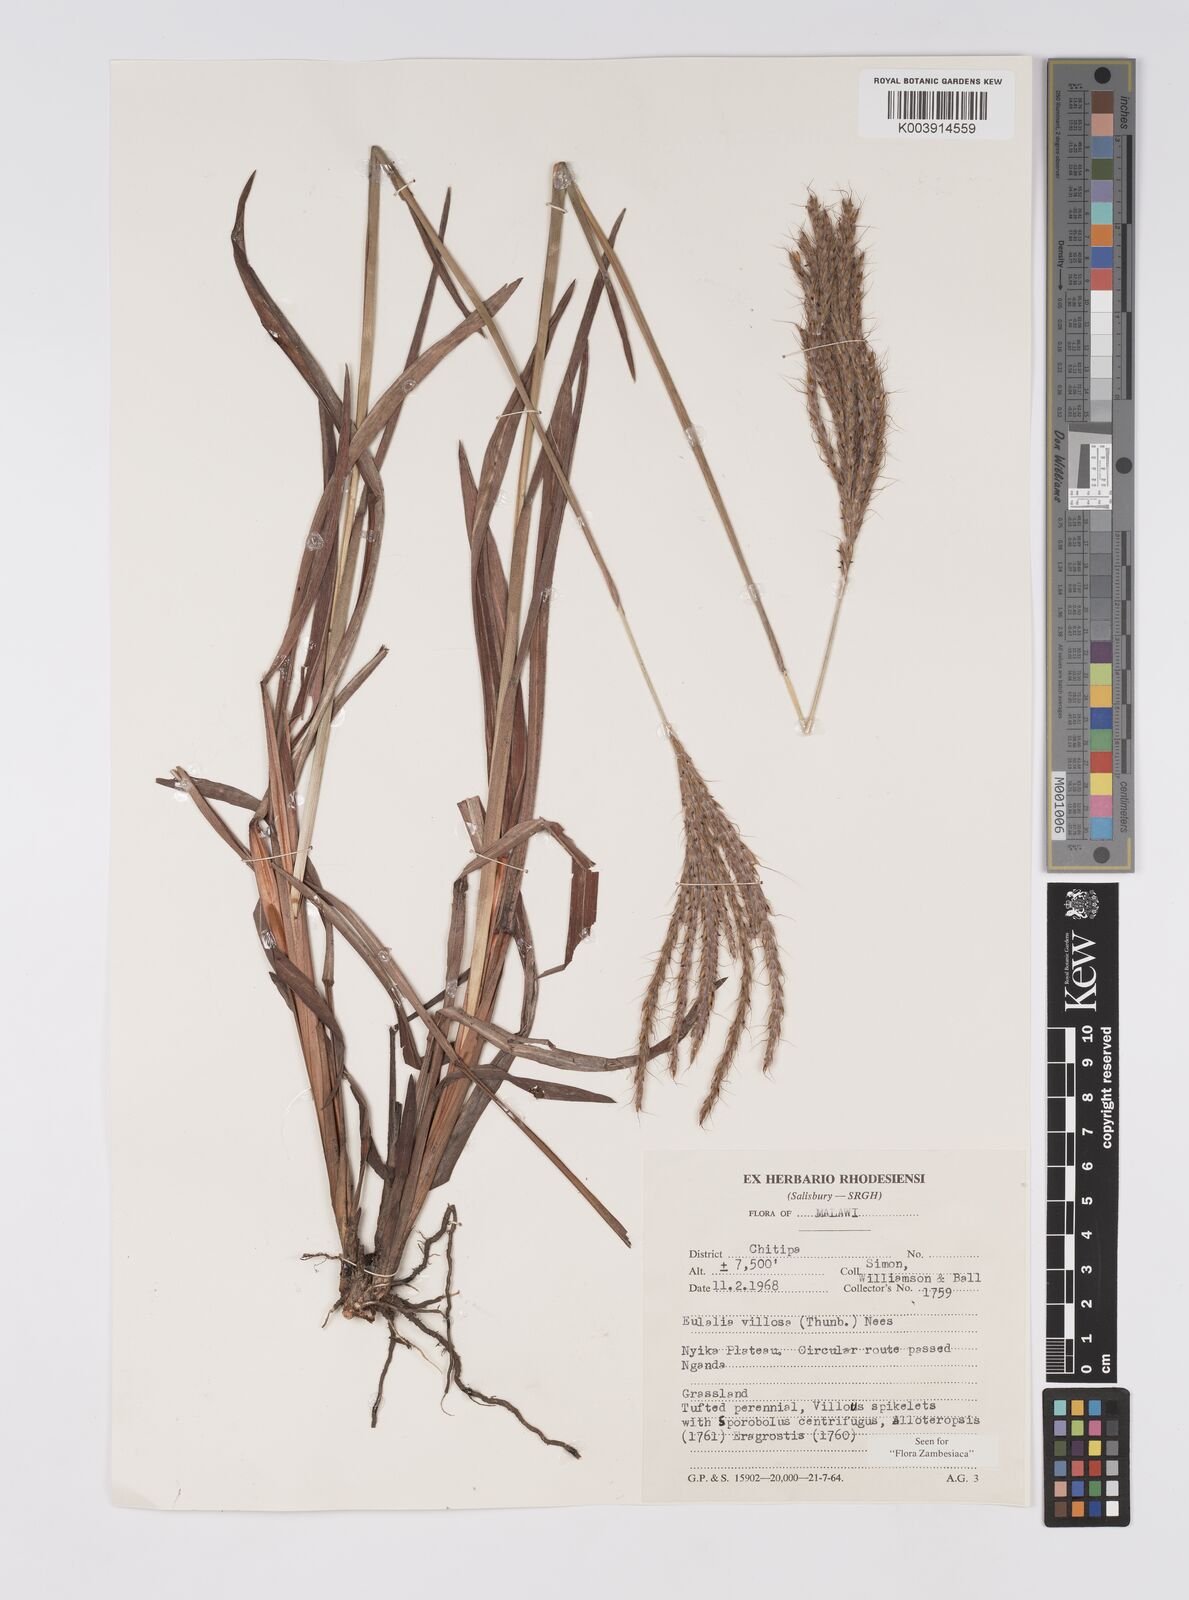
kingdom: Plantae
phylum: Tracheophyta
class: Liliopsida
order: Poales
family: Poaceae
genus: Eulalia
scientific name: Eulalia villosa
